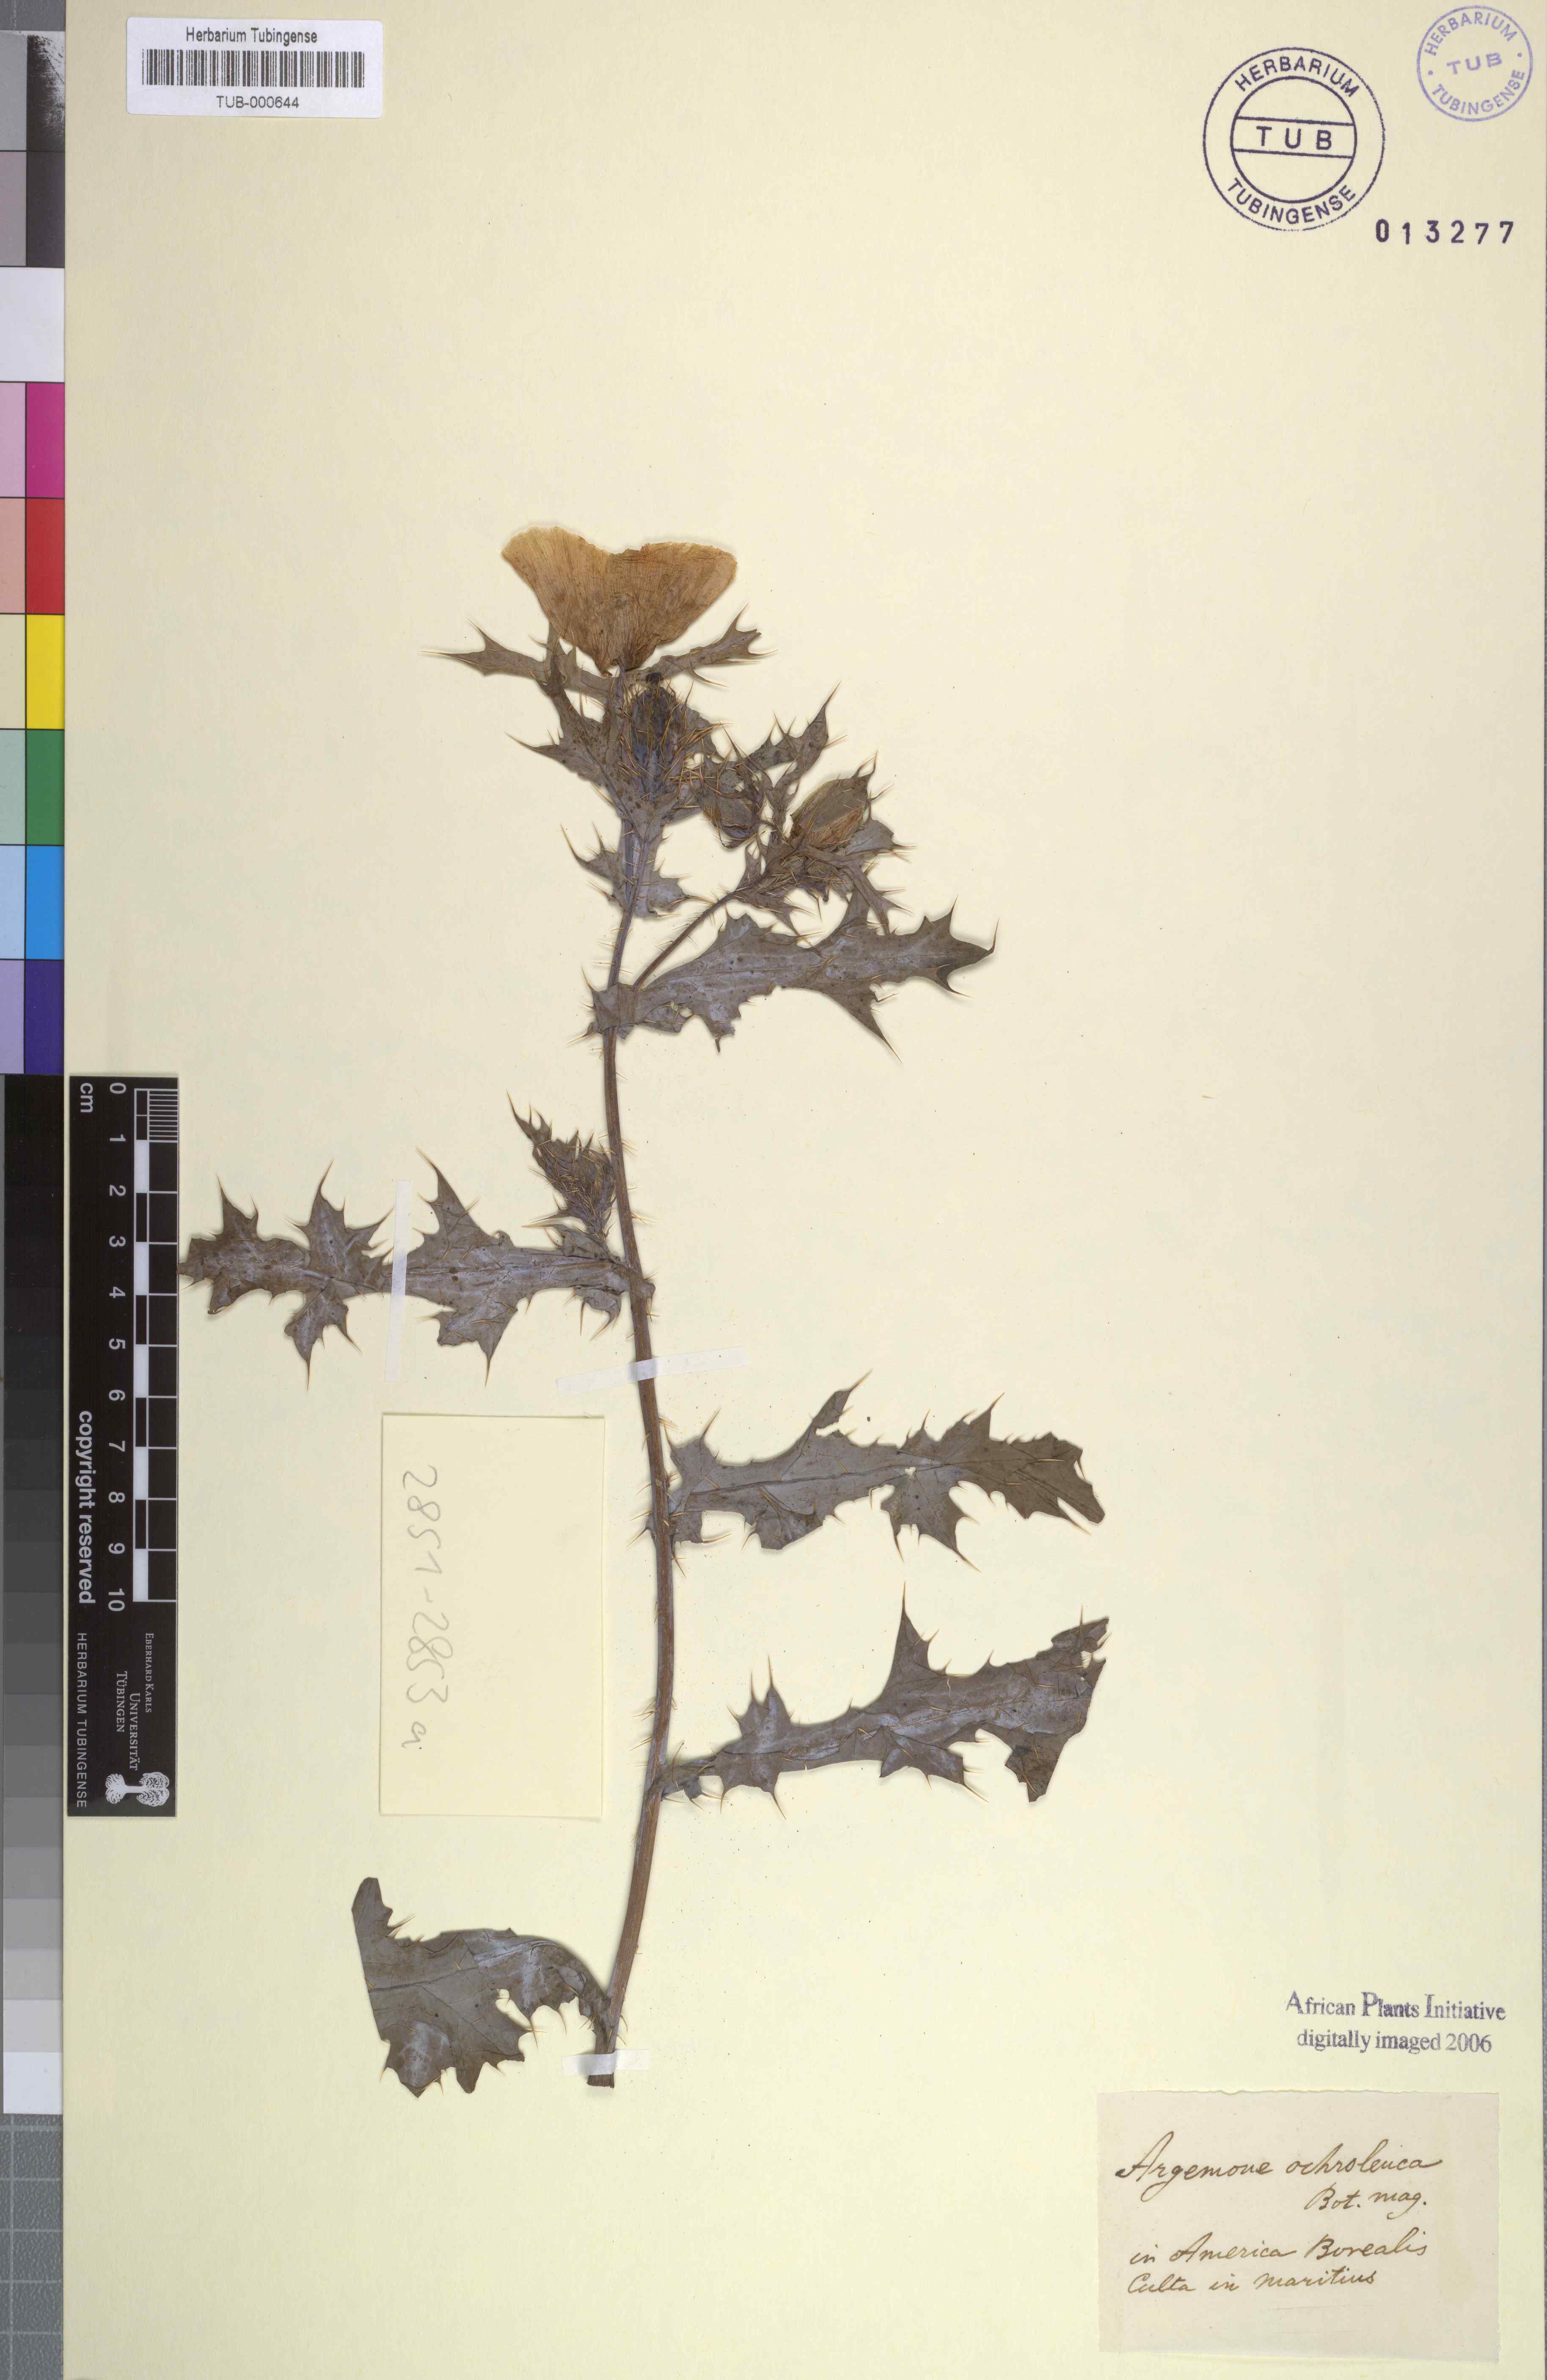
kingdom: Plantae
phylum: Tracheophyta
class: Magnoliopsida
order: Ranunculales
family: Papaveraceae
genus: Argemone
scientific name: Argemone ochroleuca
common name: White-flower mexican-poppy
